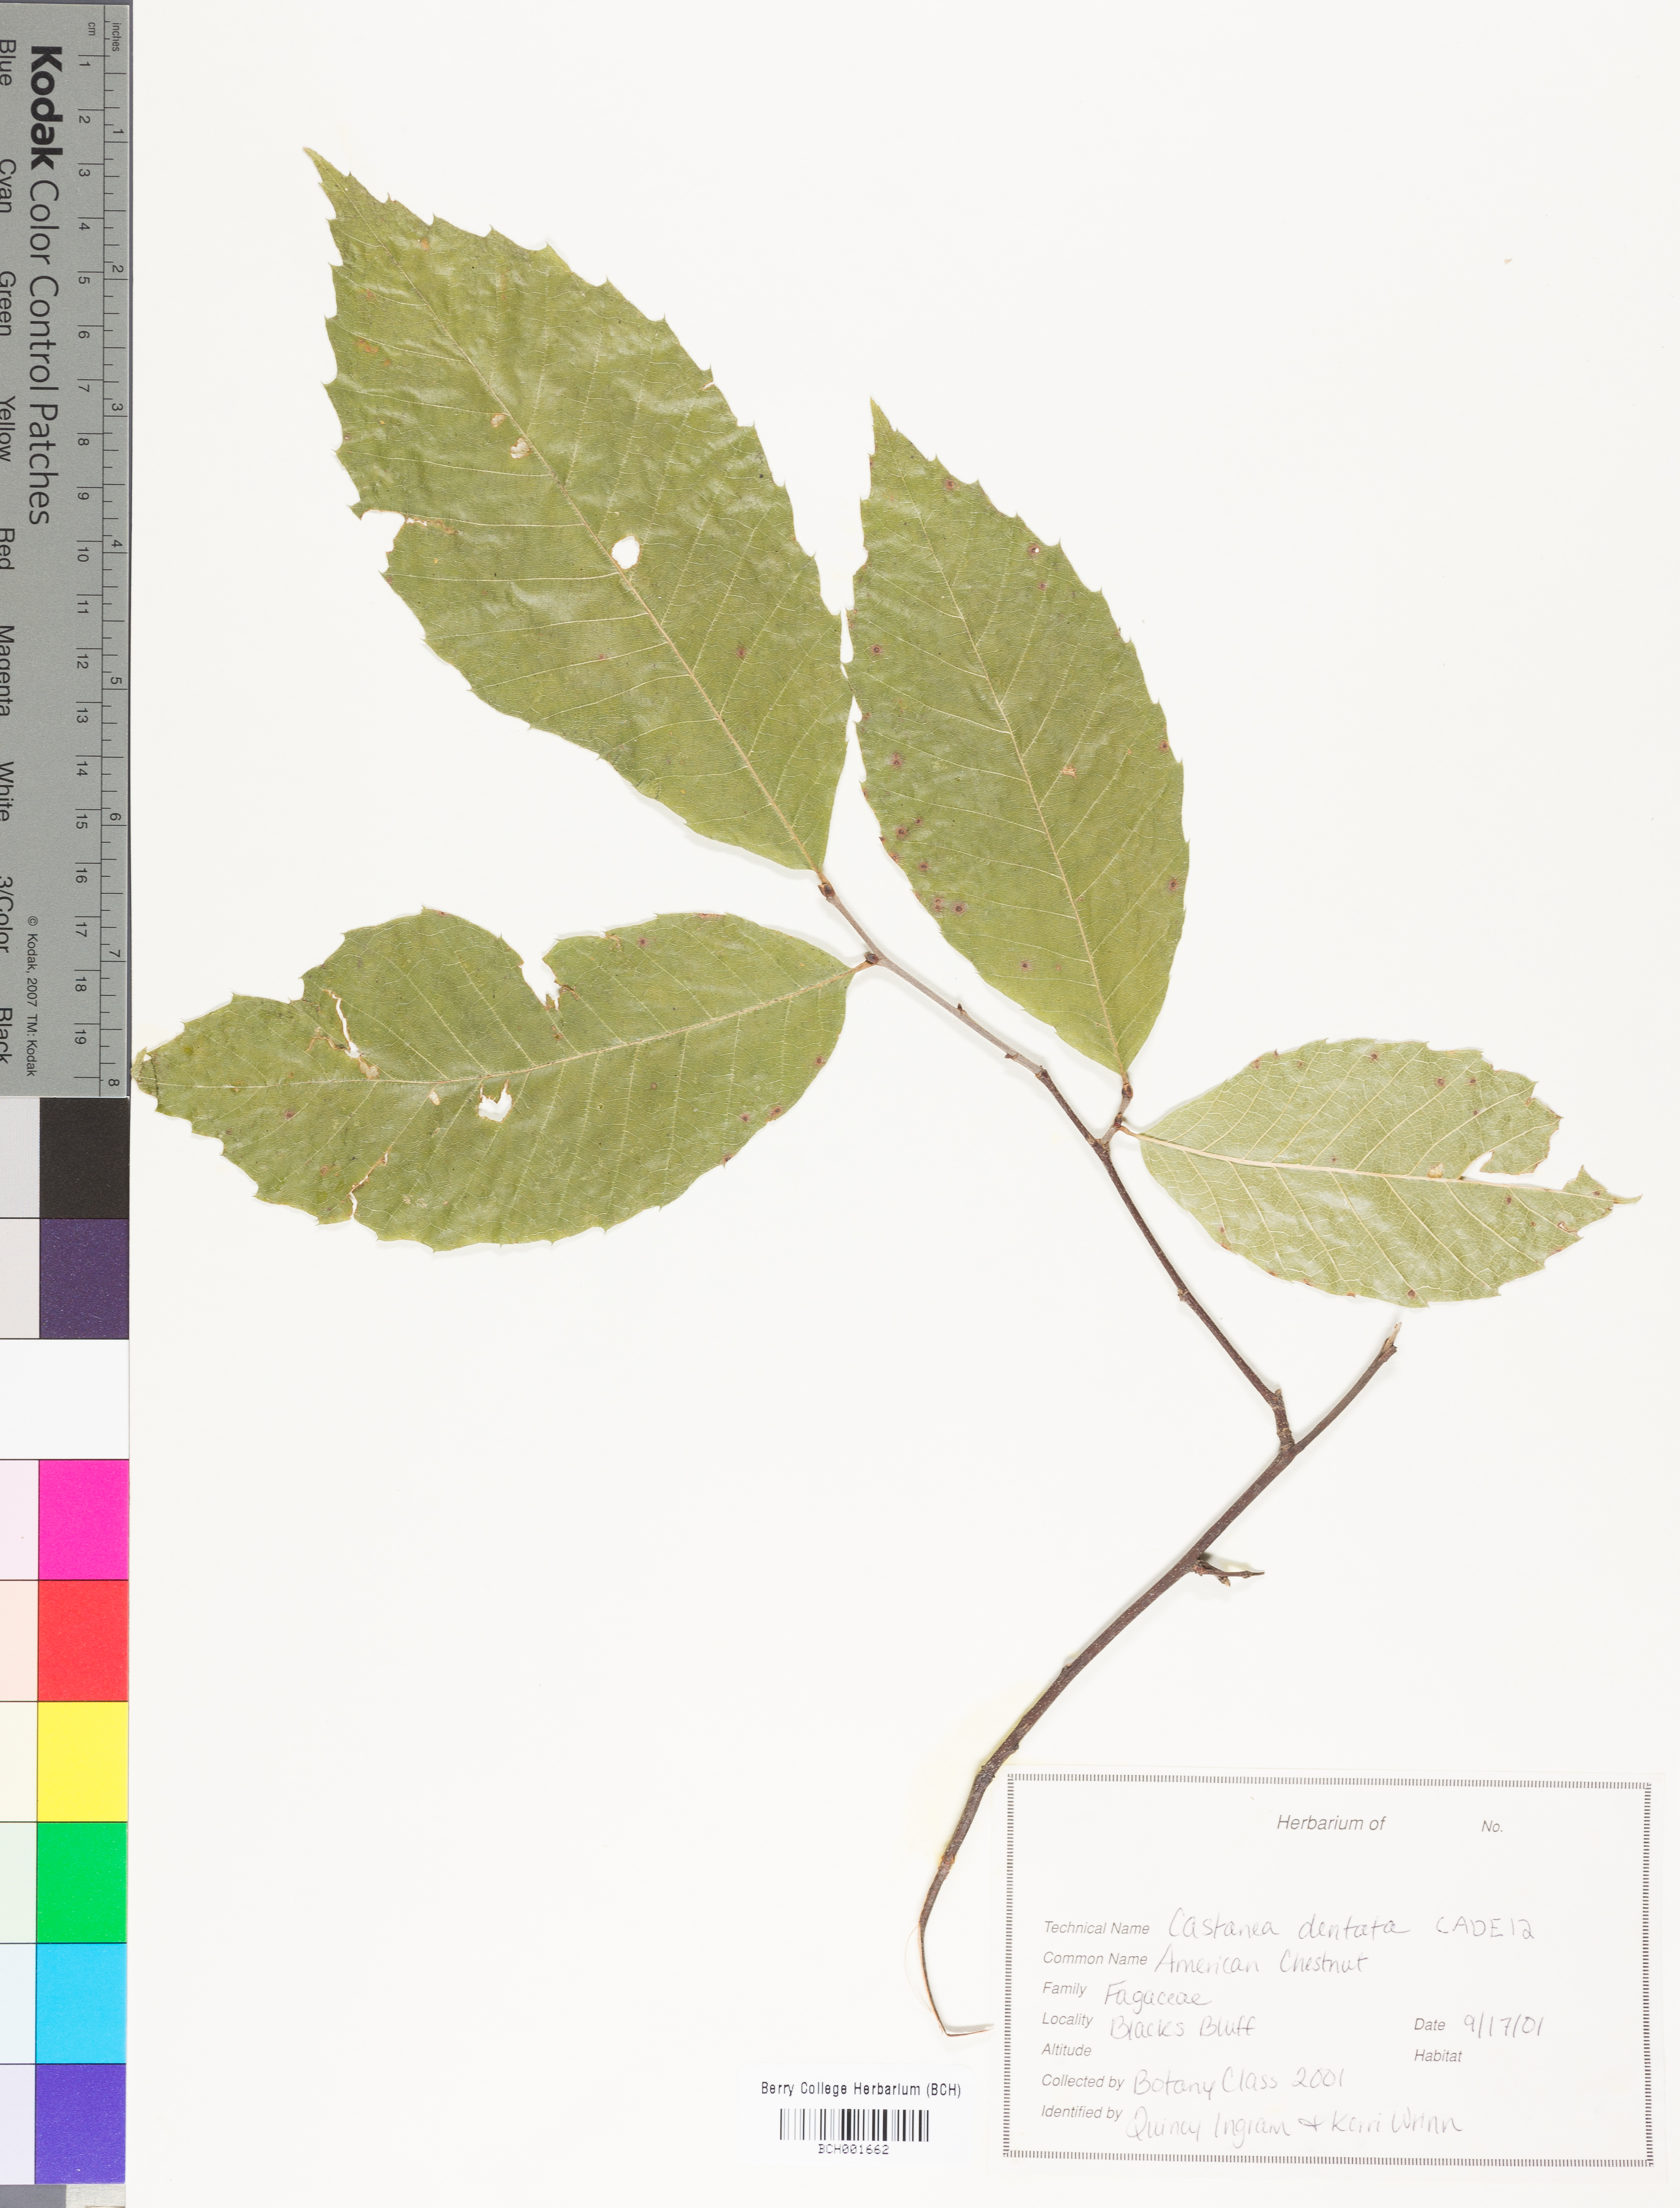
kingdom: Plantae
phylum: Tracheophyta
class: Magnoliopsida
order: Fagales
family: Fagaceae
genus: Castanea
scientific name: Castanea dentata
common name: American chestnut
